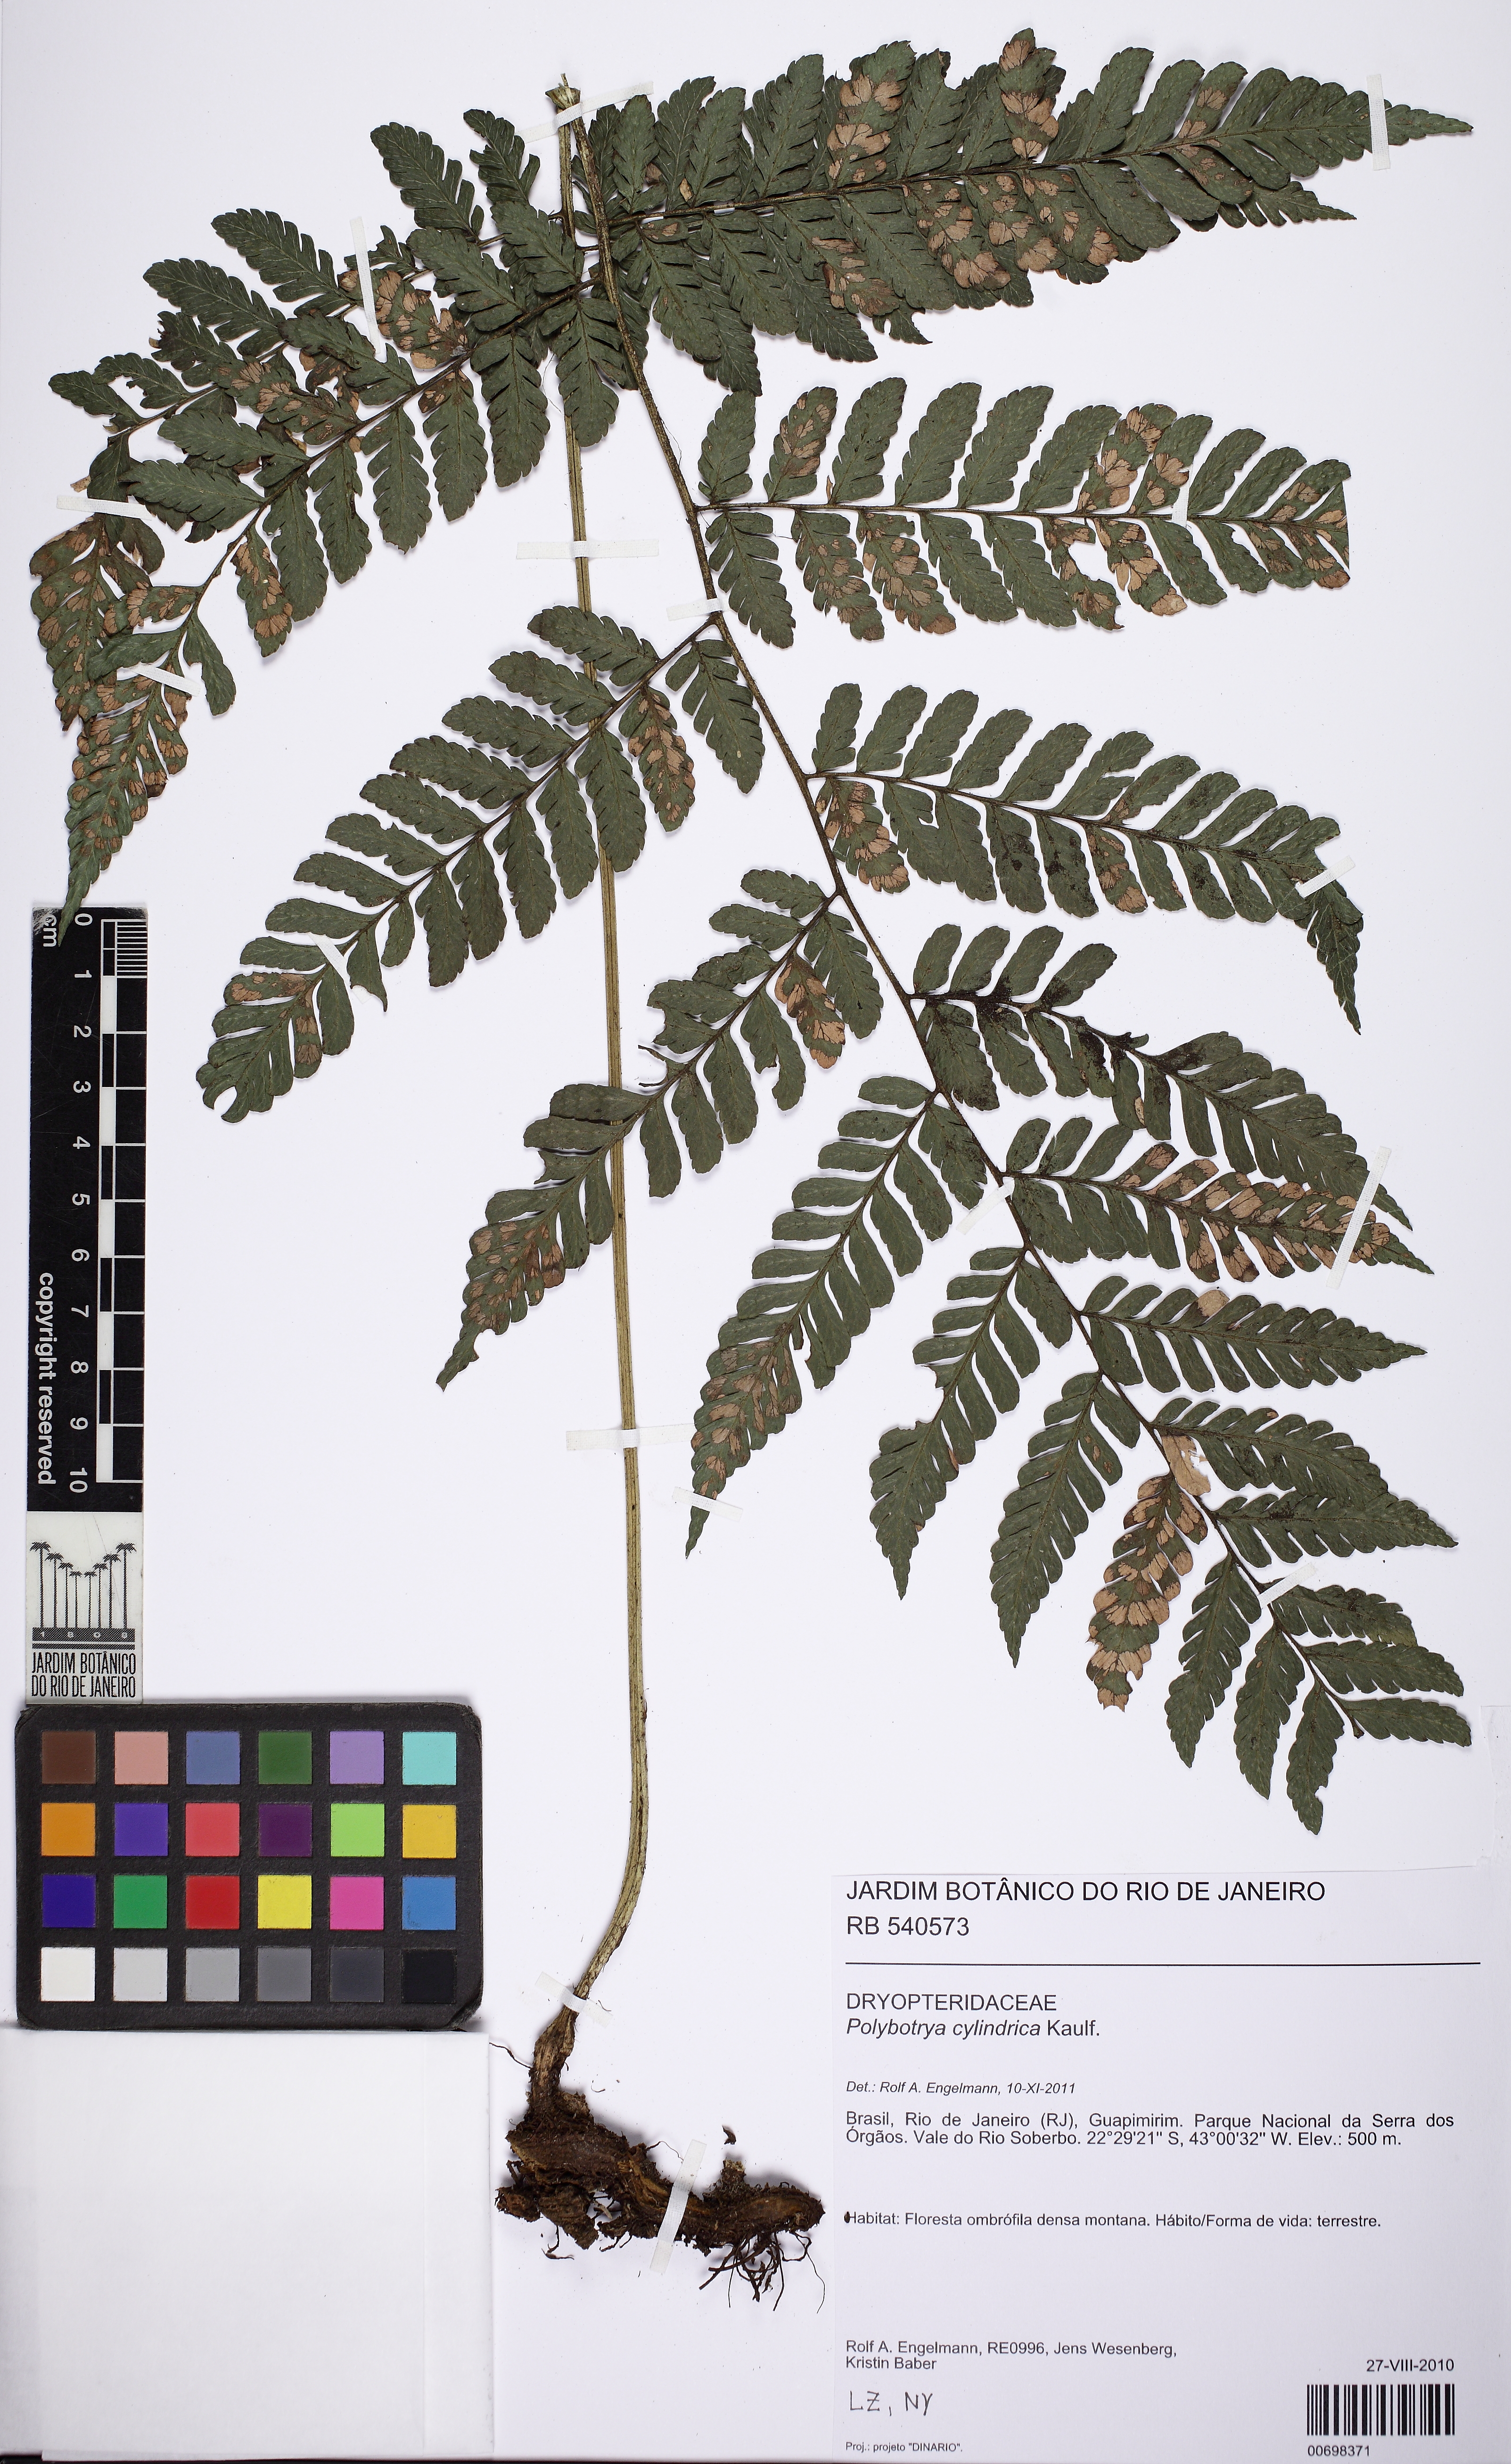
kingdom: Plantae
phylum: Tracheophyta
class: Polypodiopsida
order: Polypodiales
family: Dryopteridaceae
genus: Polybotrya
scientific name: Polybotrya cylindrica
